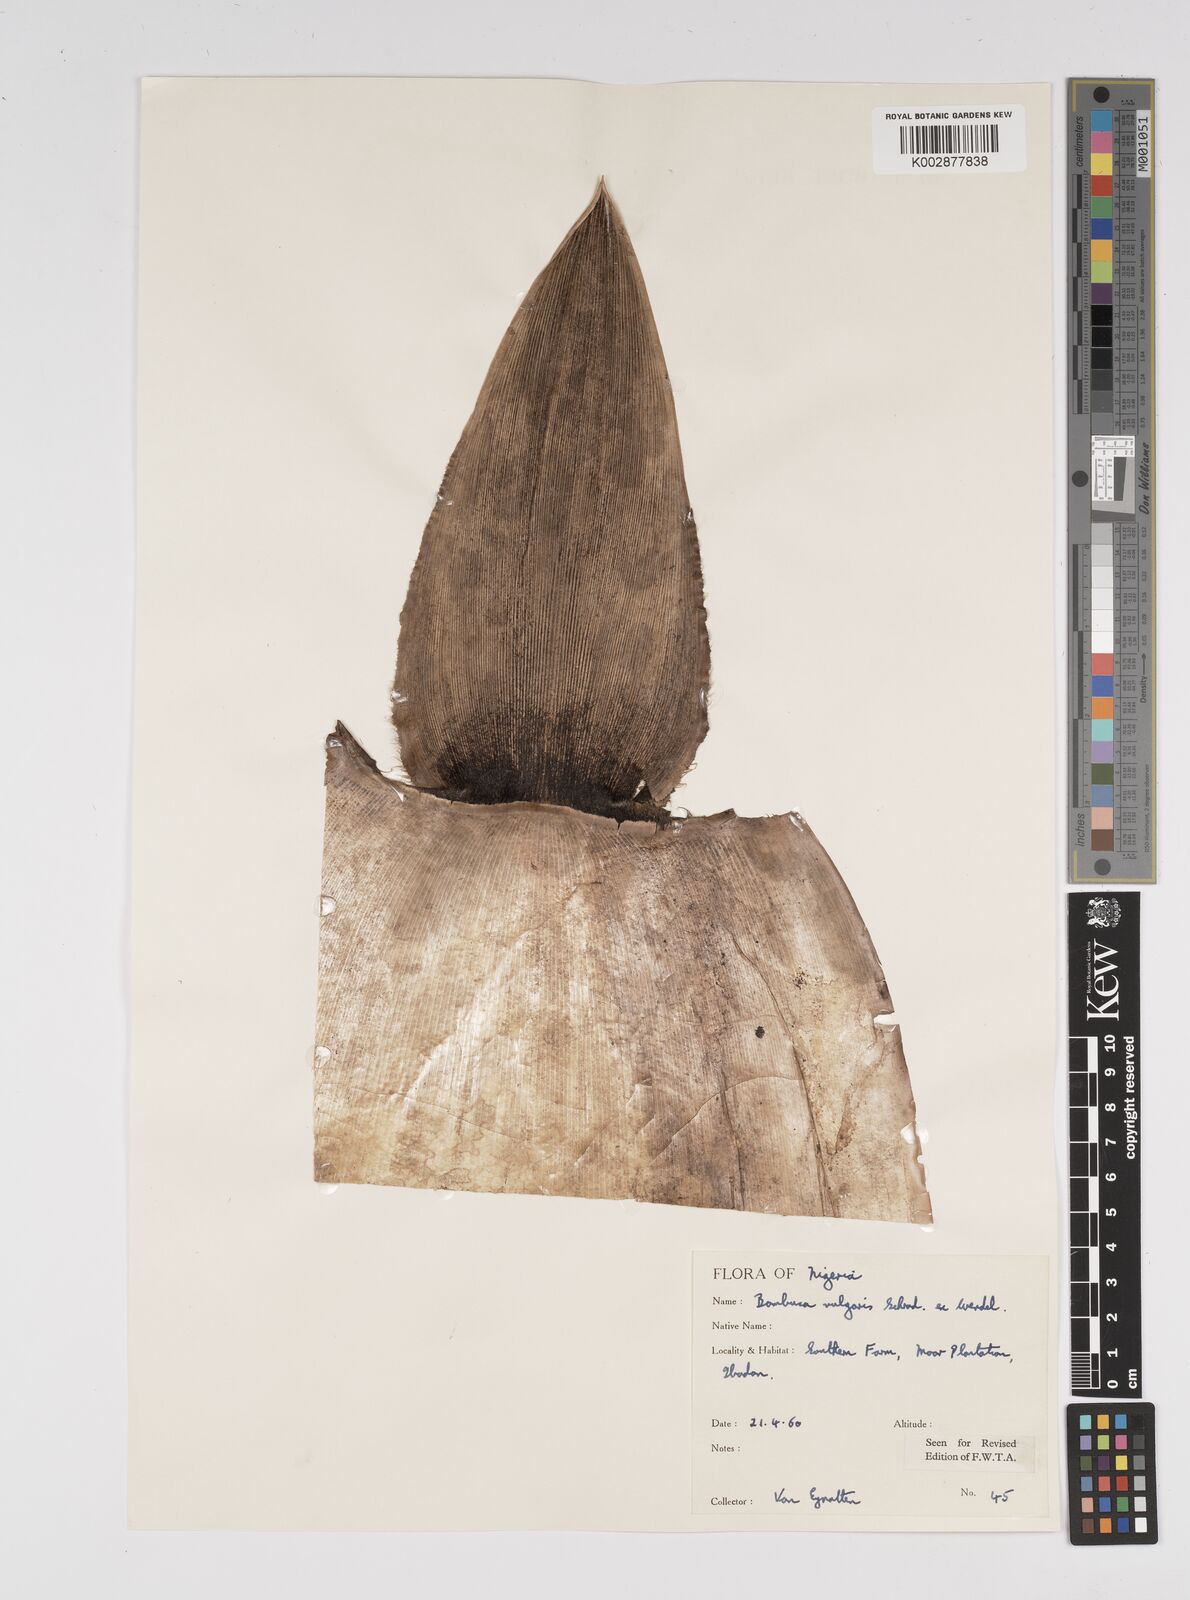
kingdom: Plantae
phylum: Tracheophyta
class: Liliopsida
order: Poales
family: Poaceae
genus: Bambusa
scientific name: Bambusa vulgaris
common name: Common bamboo
